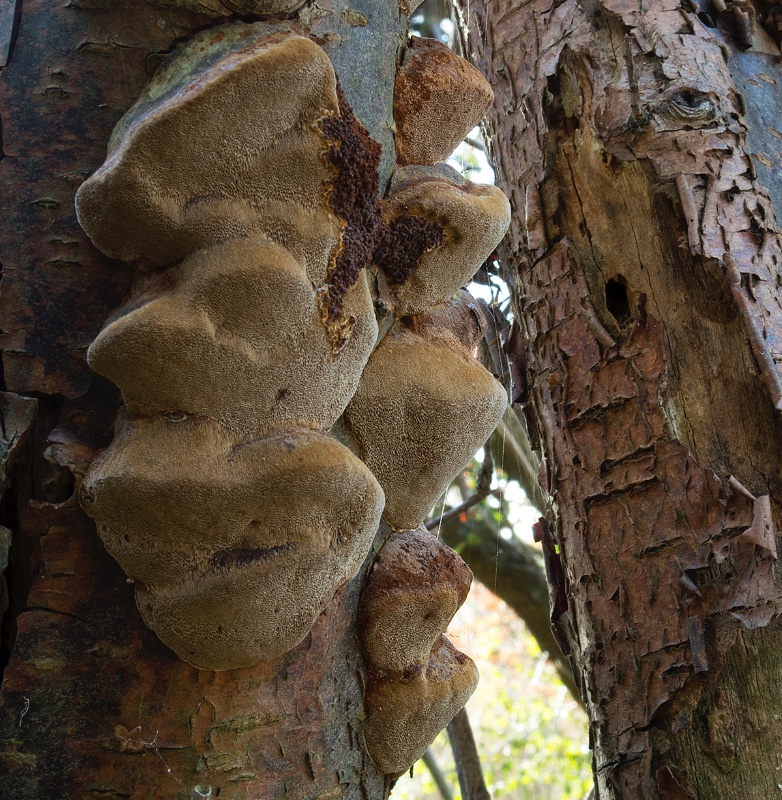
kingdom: Fungi
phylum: Basidiomycota
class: Agaricomycetes
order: Hymenochaetales
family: Hymenochaetaceae
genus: Phellinus
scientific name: Phellinus pomaceus
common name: blomme-ildporesvamp
